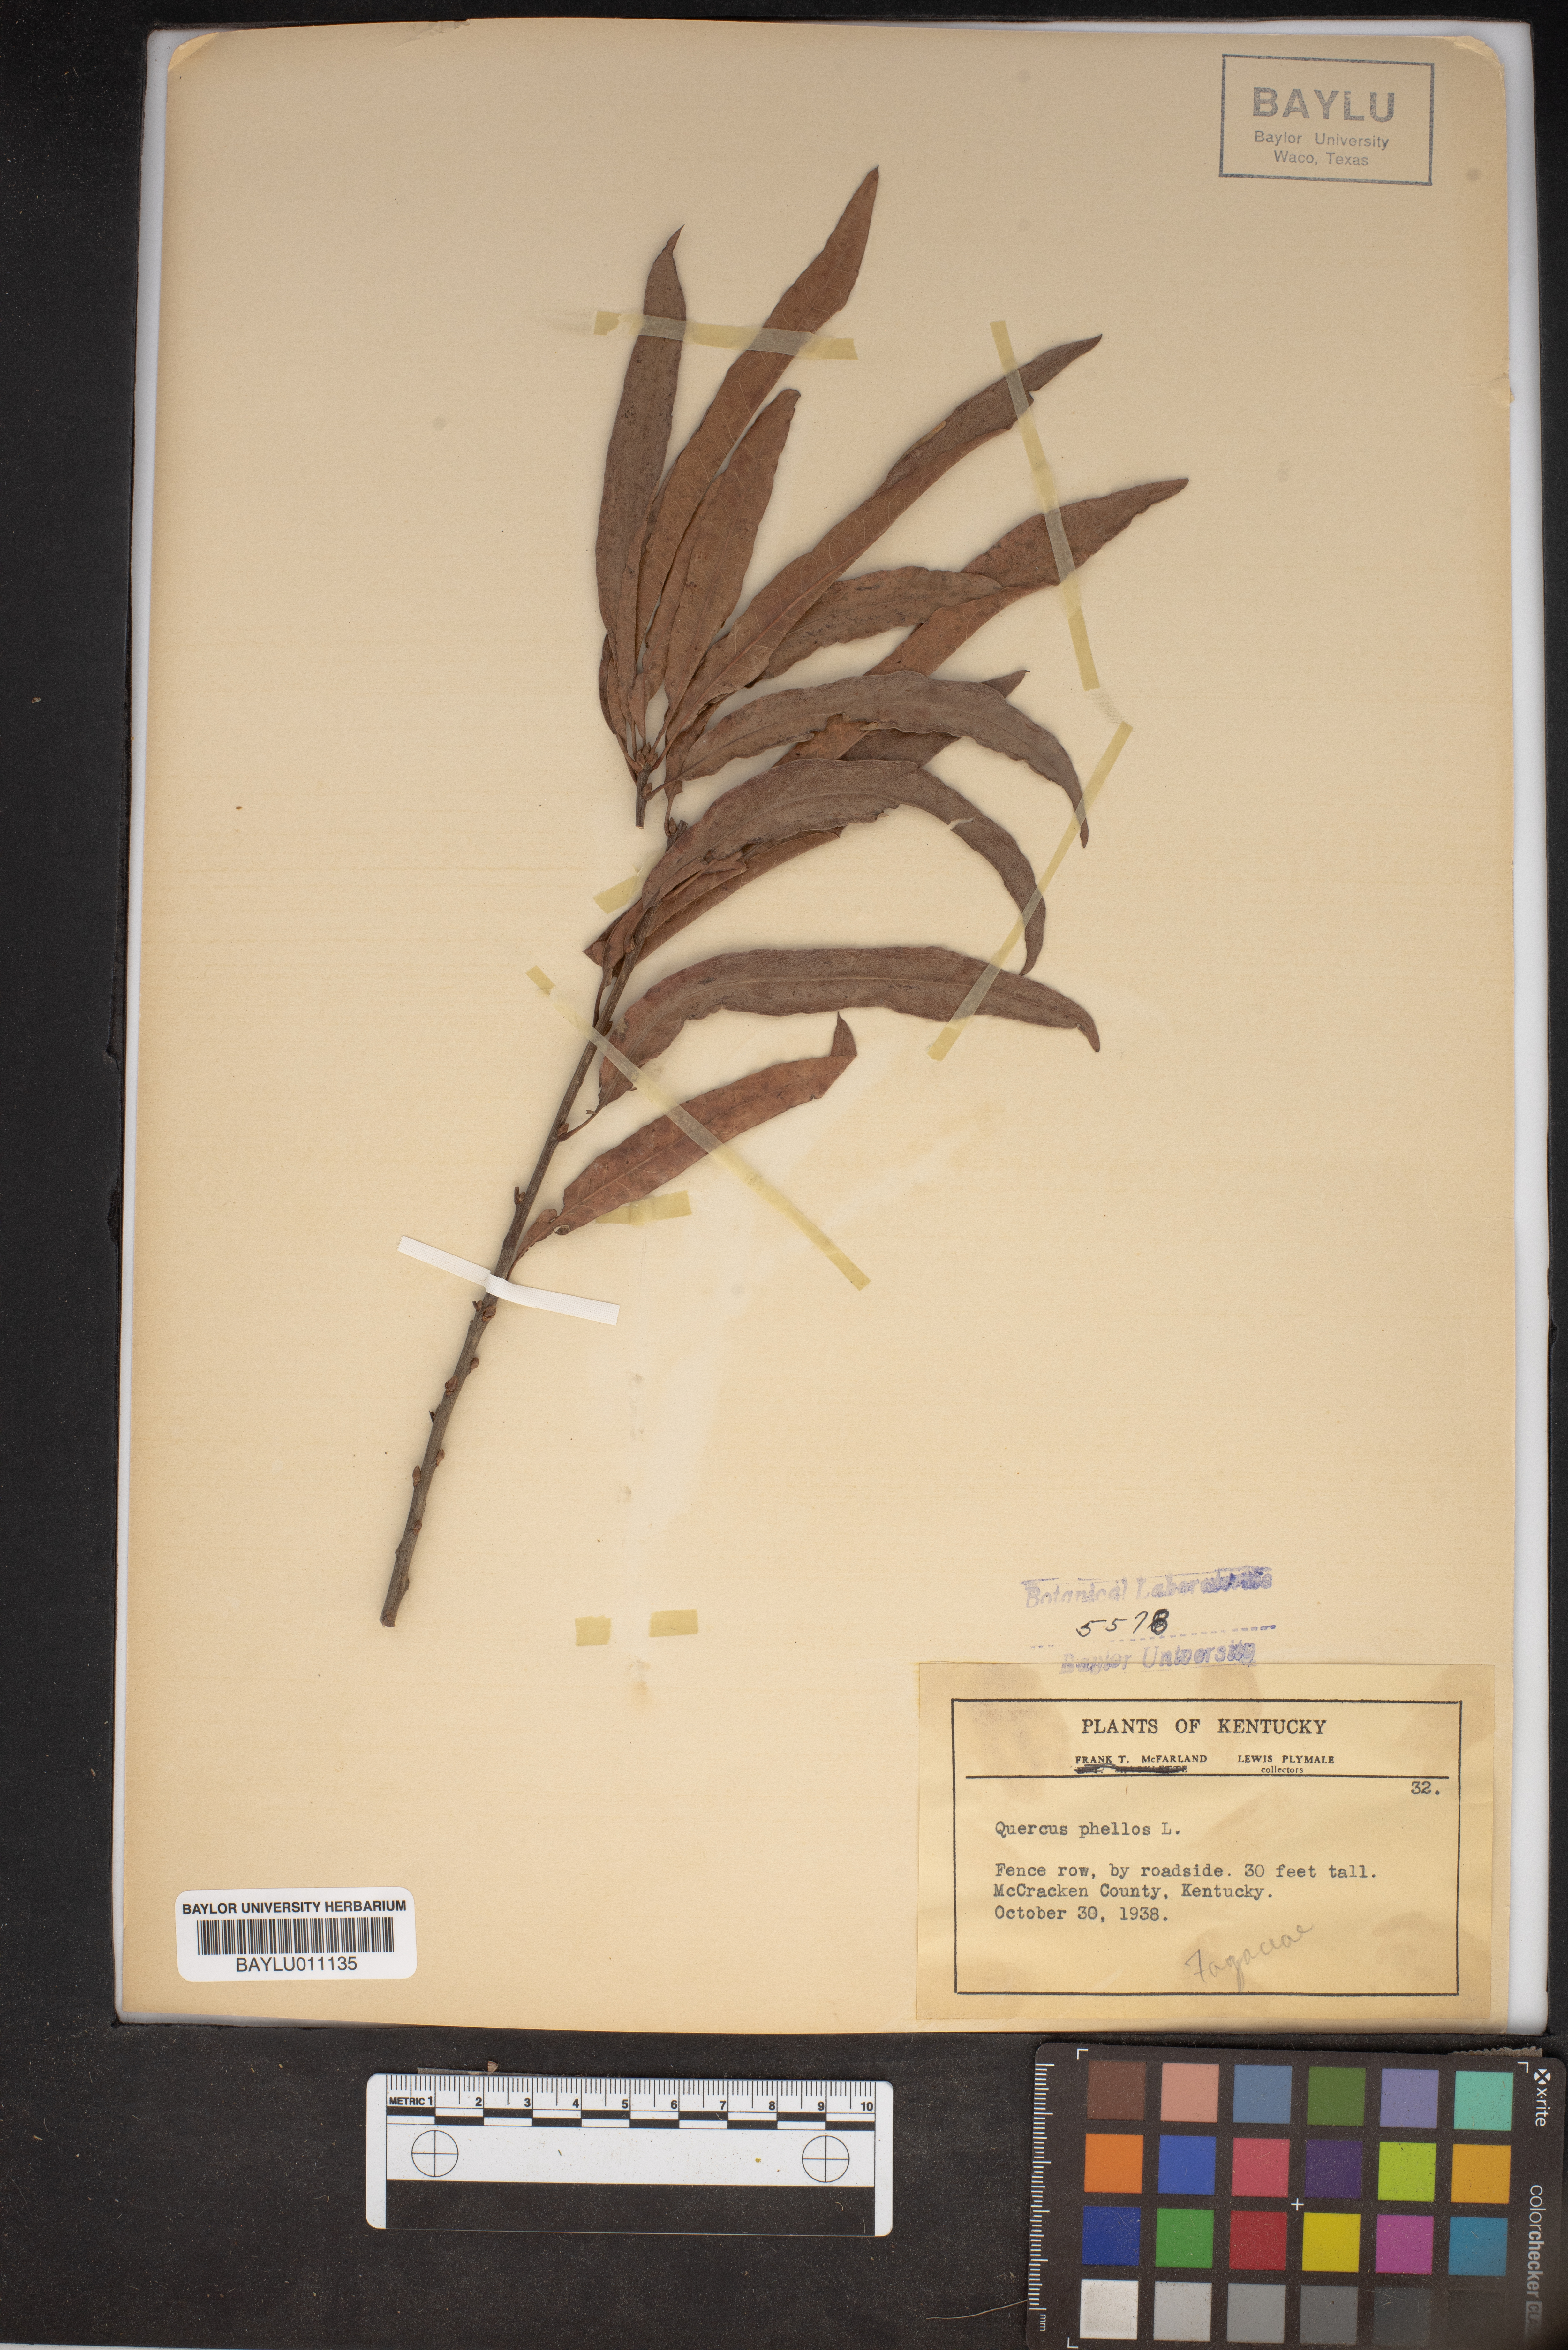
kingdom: Plantae
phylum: Tracheophyta
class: Magnoliopsida
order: Fagales
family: Fagaceae
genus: Quercus
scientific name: Quercus phellos
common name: Willow oak
